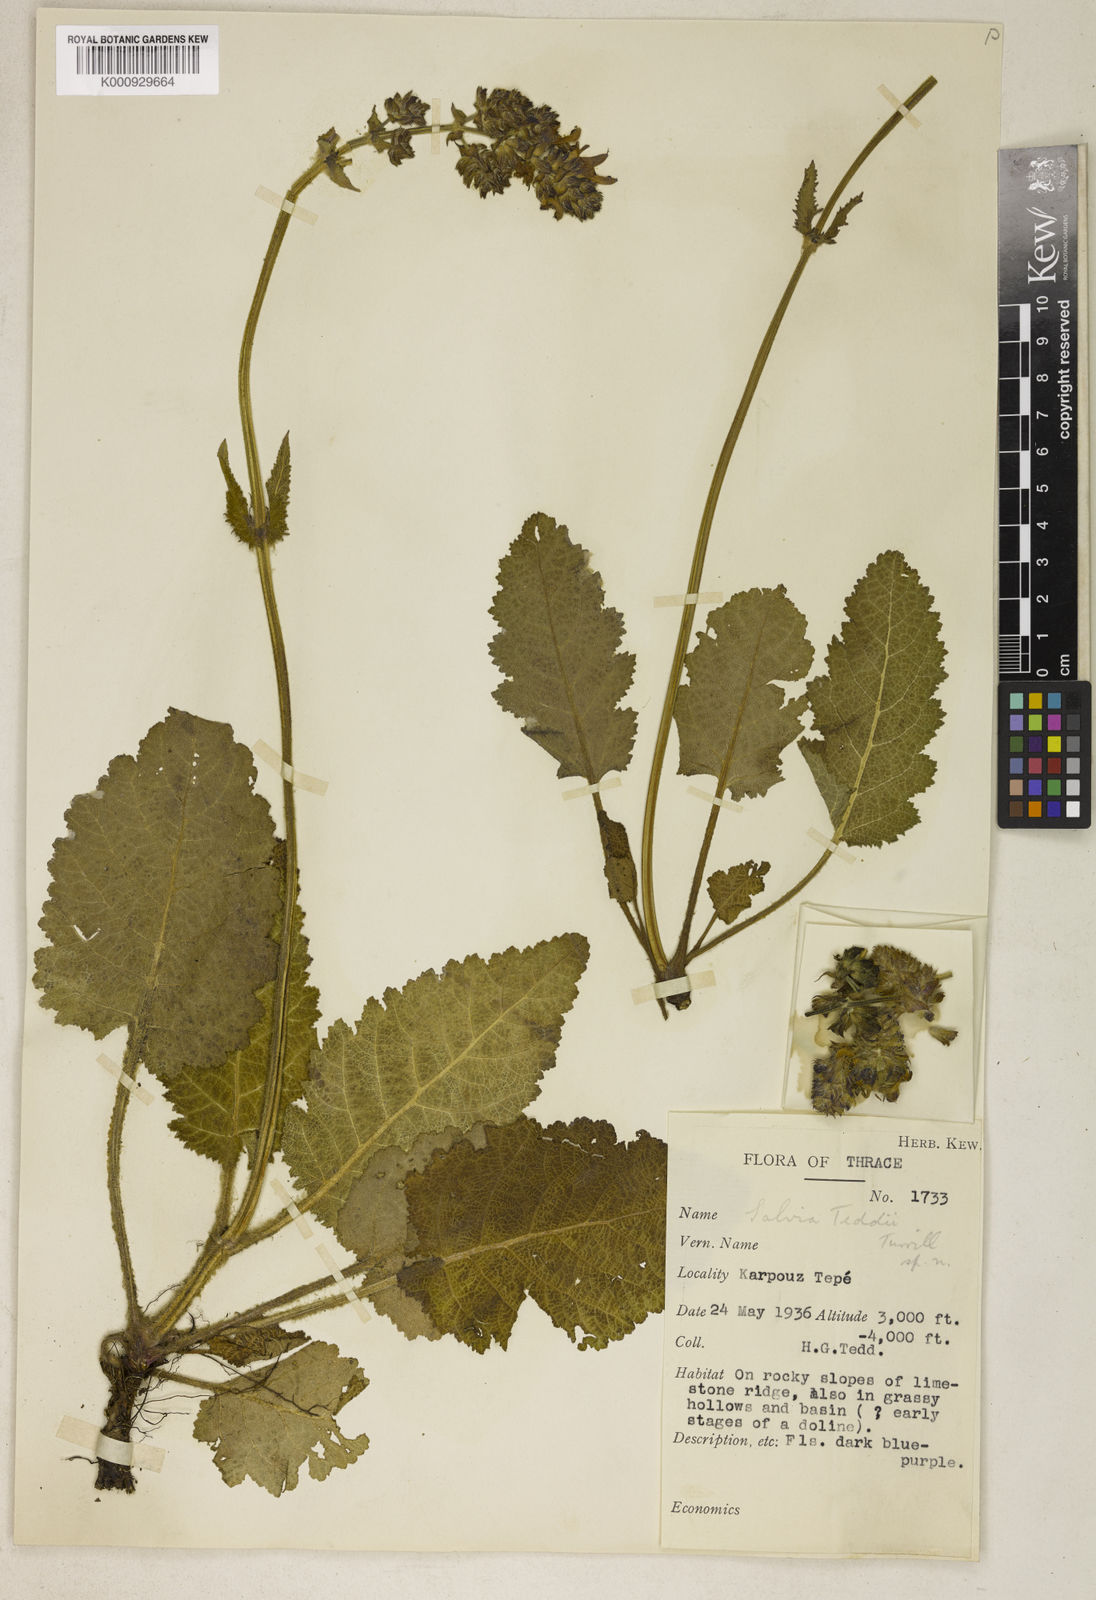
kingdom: Plantae
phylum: Tracheophyta
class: Magnoliopsida
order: Lamiales
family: Lamiaceae
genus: Salvia
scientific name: Salvia teddii
